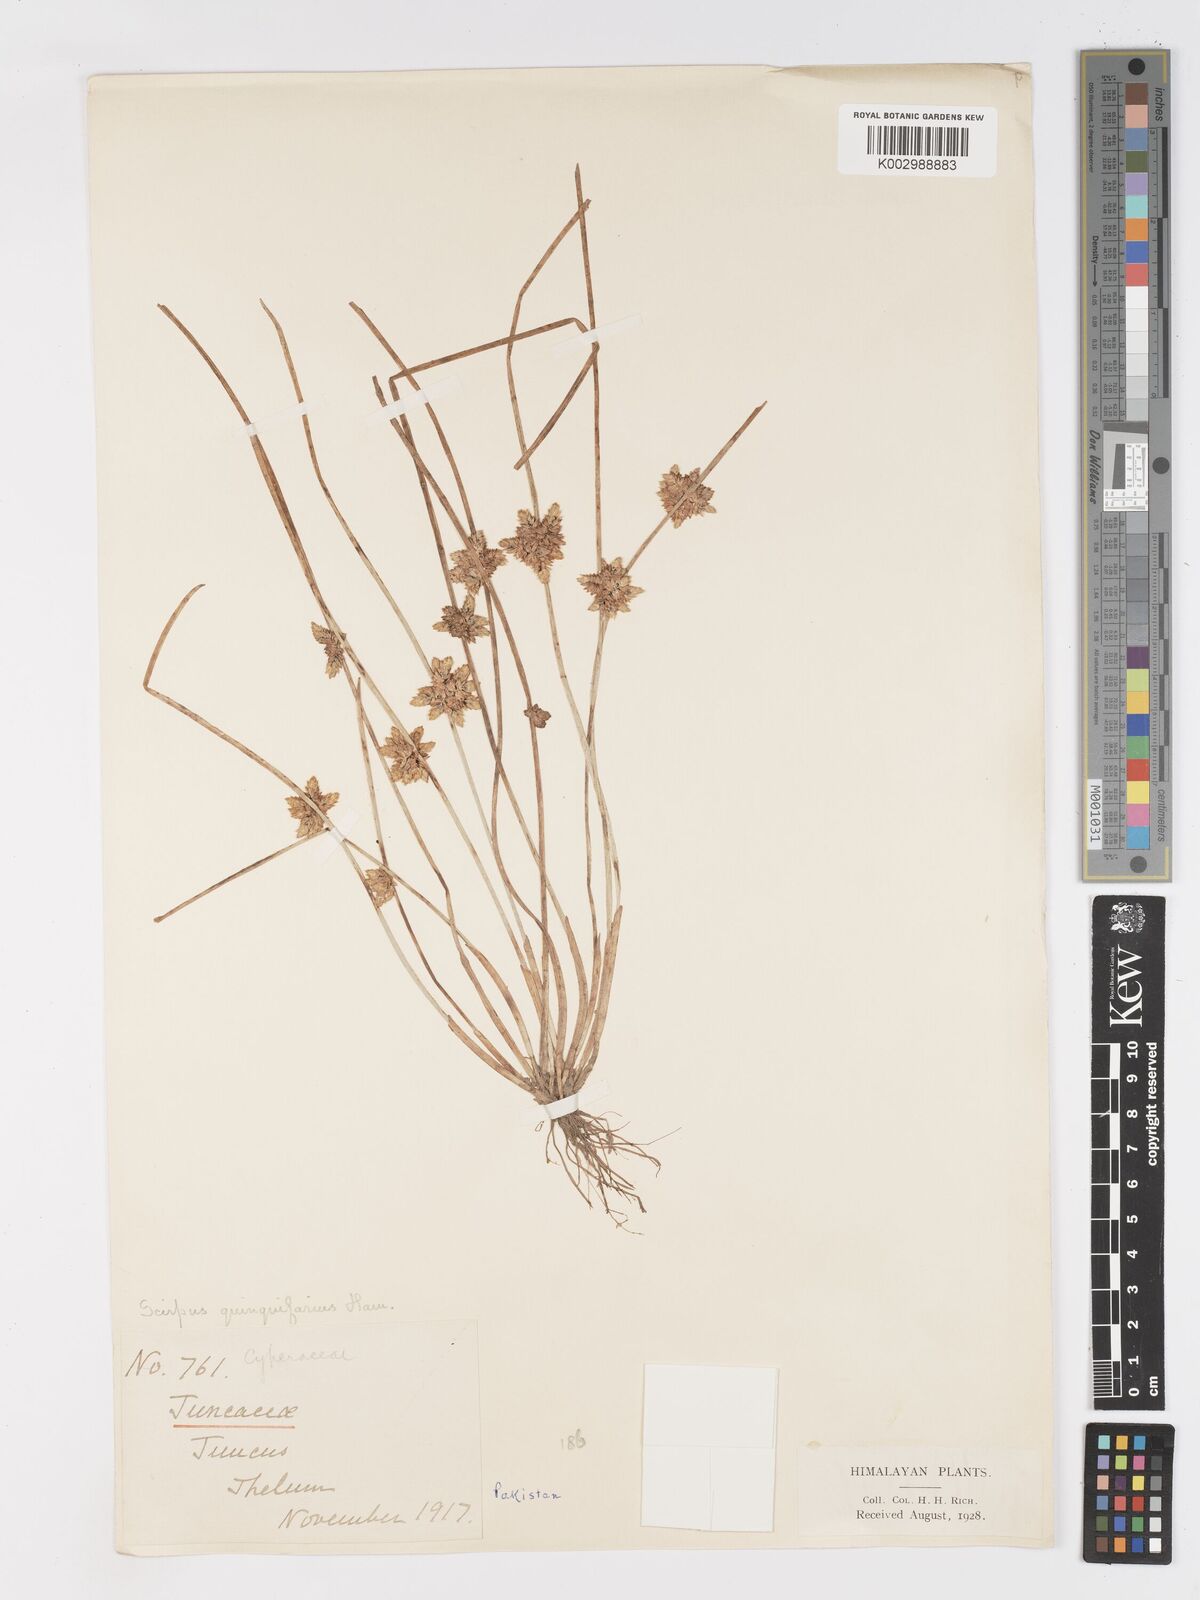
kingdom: Plantae
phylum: Tracheophyta
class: Liliopsida
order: Poales
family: Cyperaceae
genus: Schoenoplectiella
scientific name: Schoenoplectiella roylei
